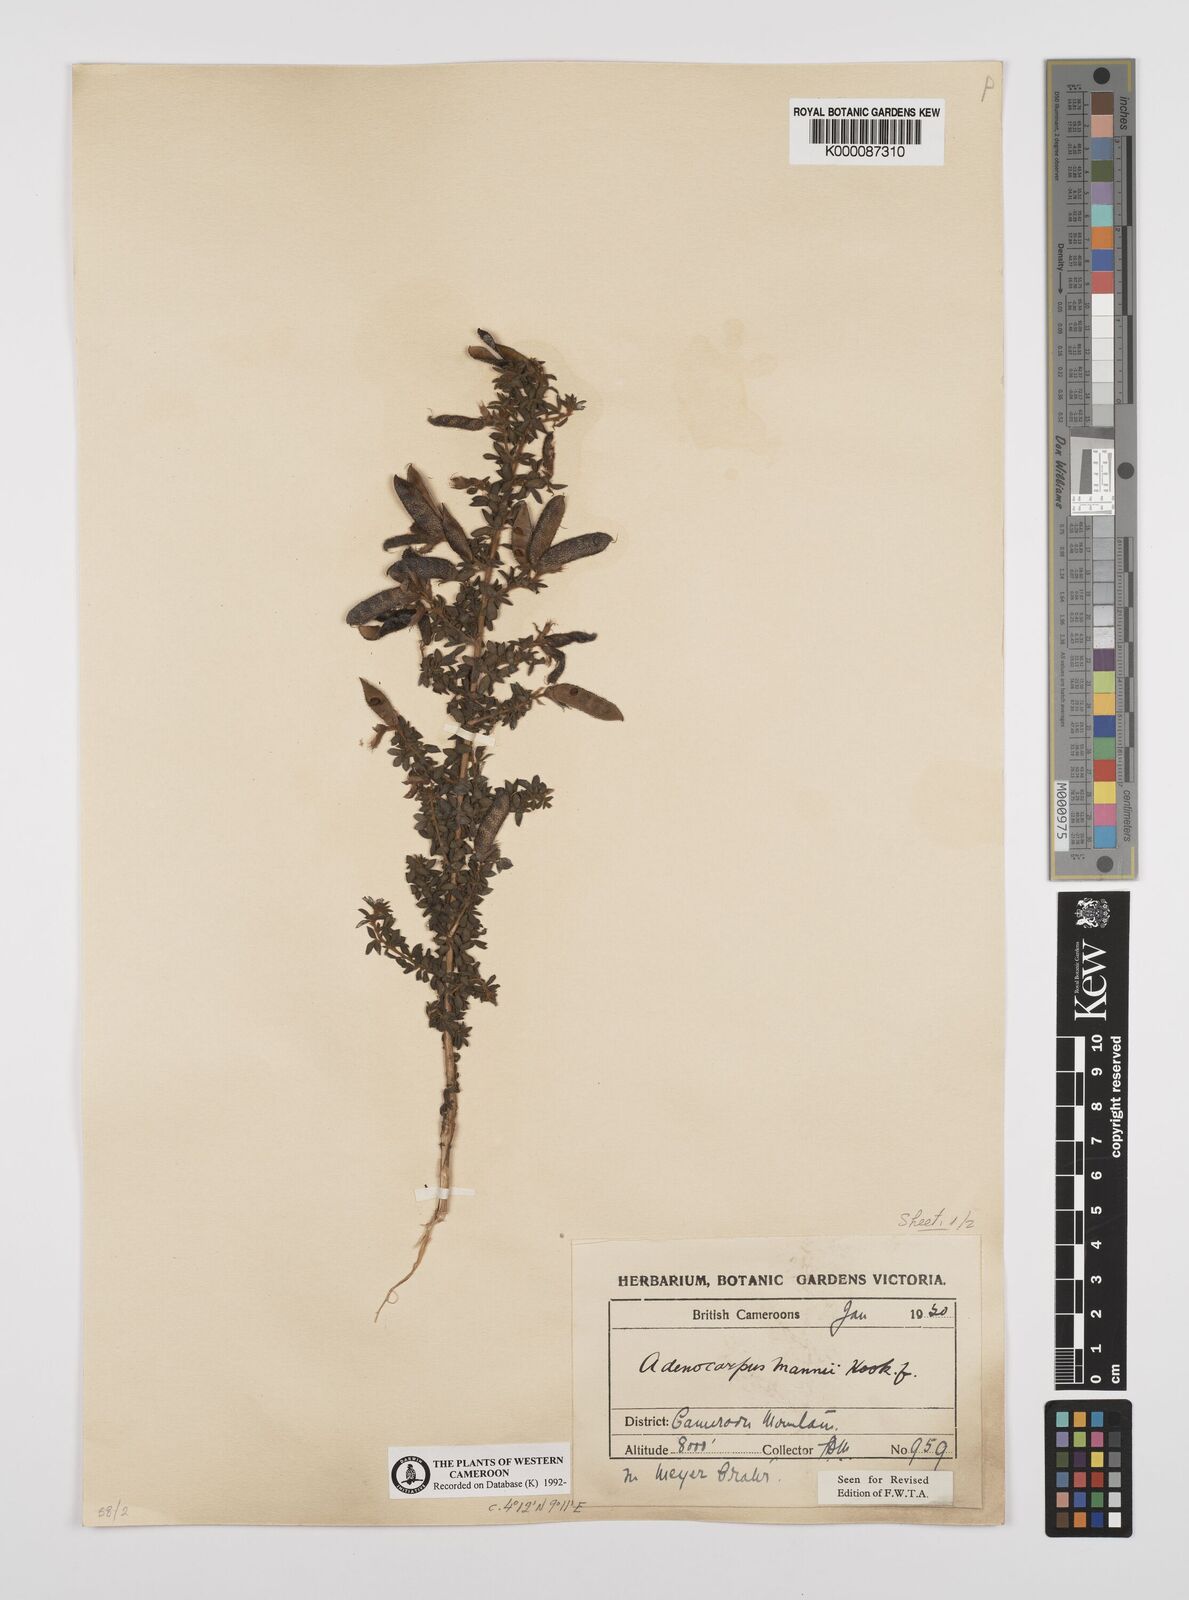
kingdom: Plantae
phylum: Tracheophyta
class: Magnoliopsida
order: Fabales
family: Fabaceae
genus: Adenocarpus
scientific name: Adenocarpus mannii
